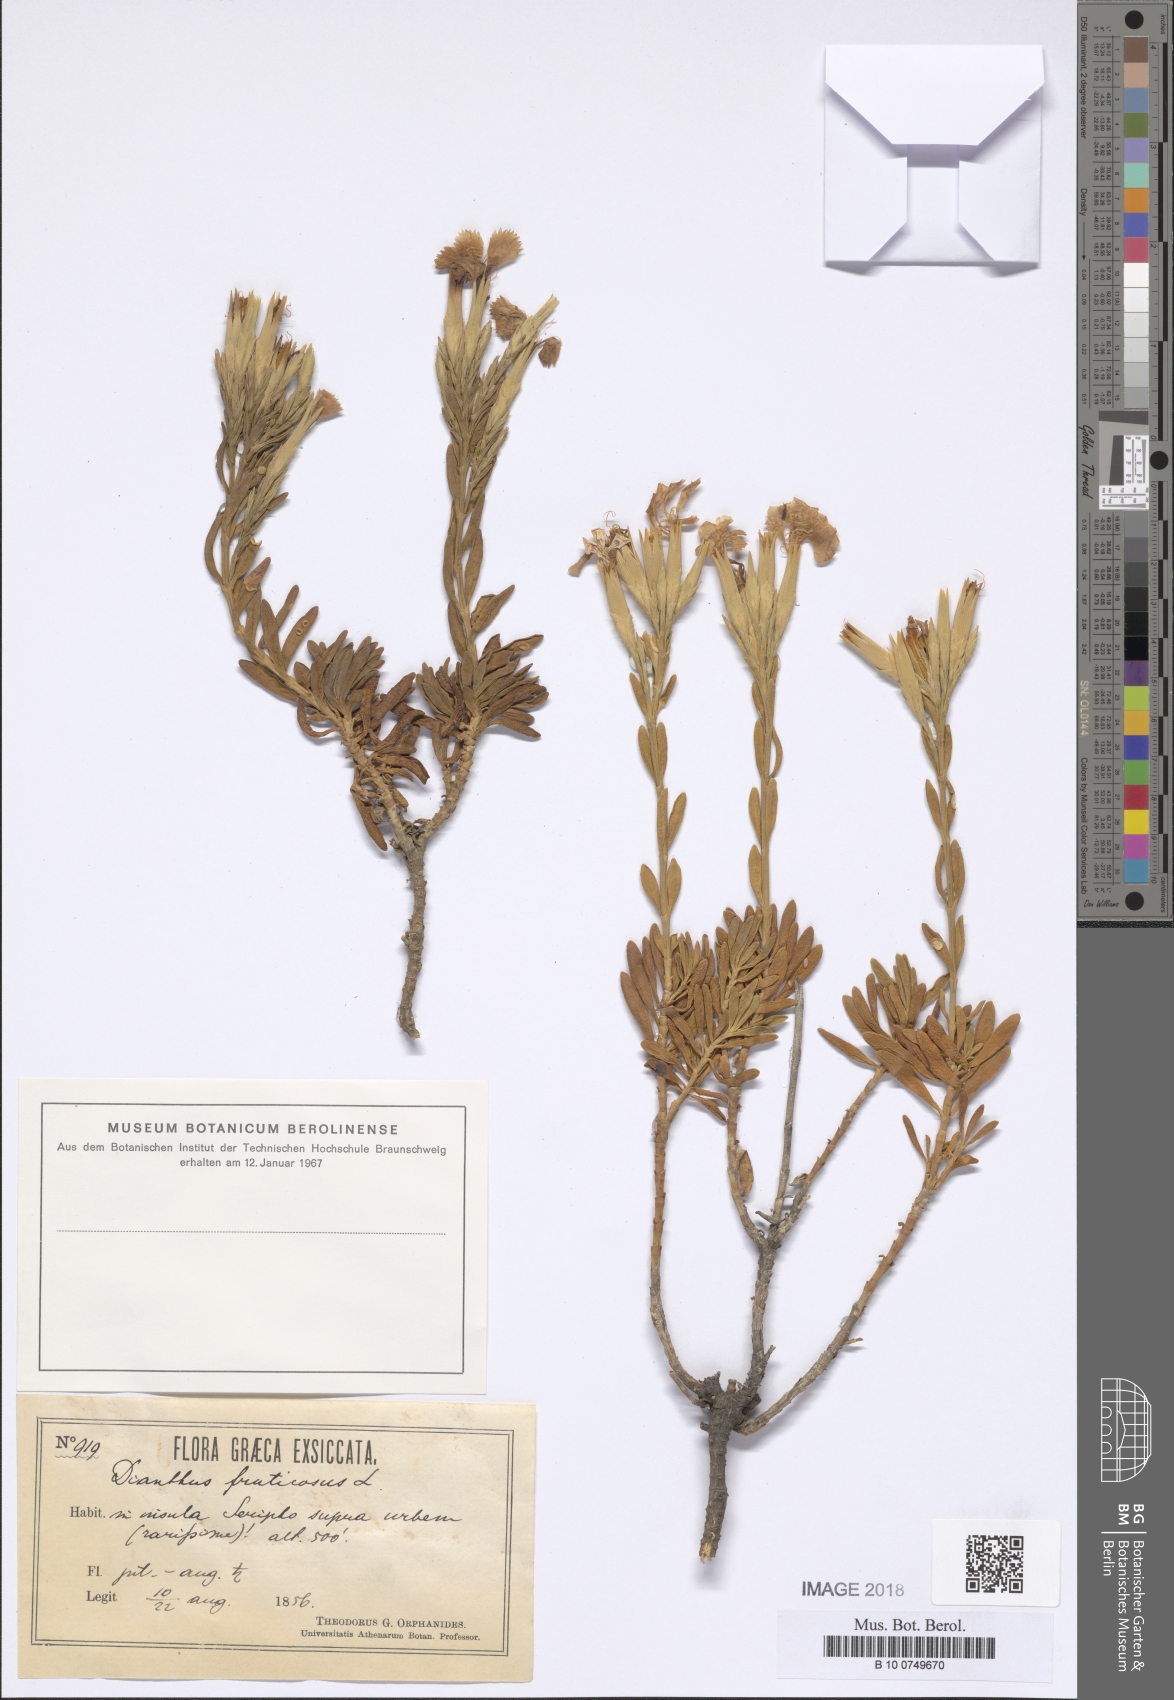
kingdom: Plantae
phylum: Tracheophyta
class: Magnoliopsida
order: Caryophyllales
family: Caryophyllaceae
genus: Dianthus
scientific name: Dianthus fruticosus
